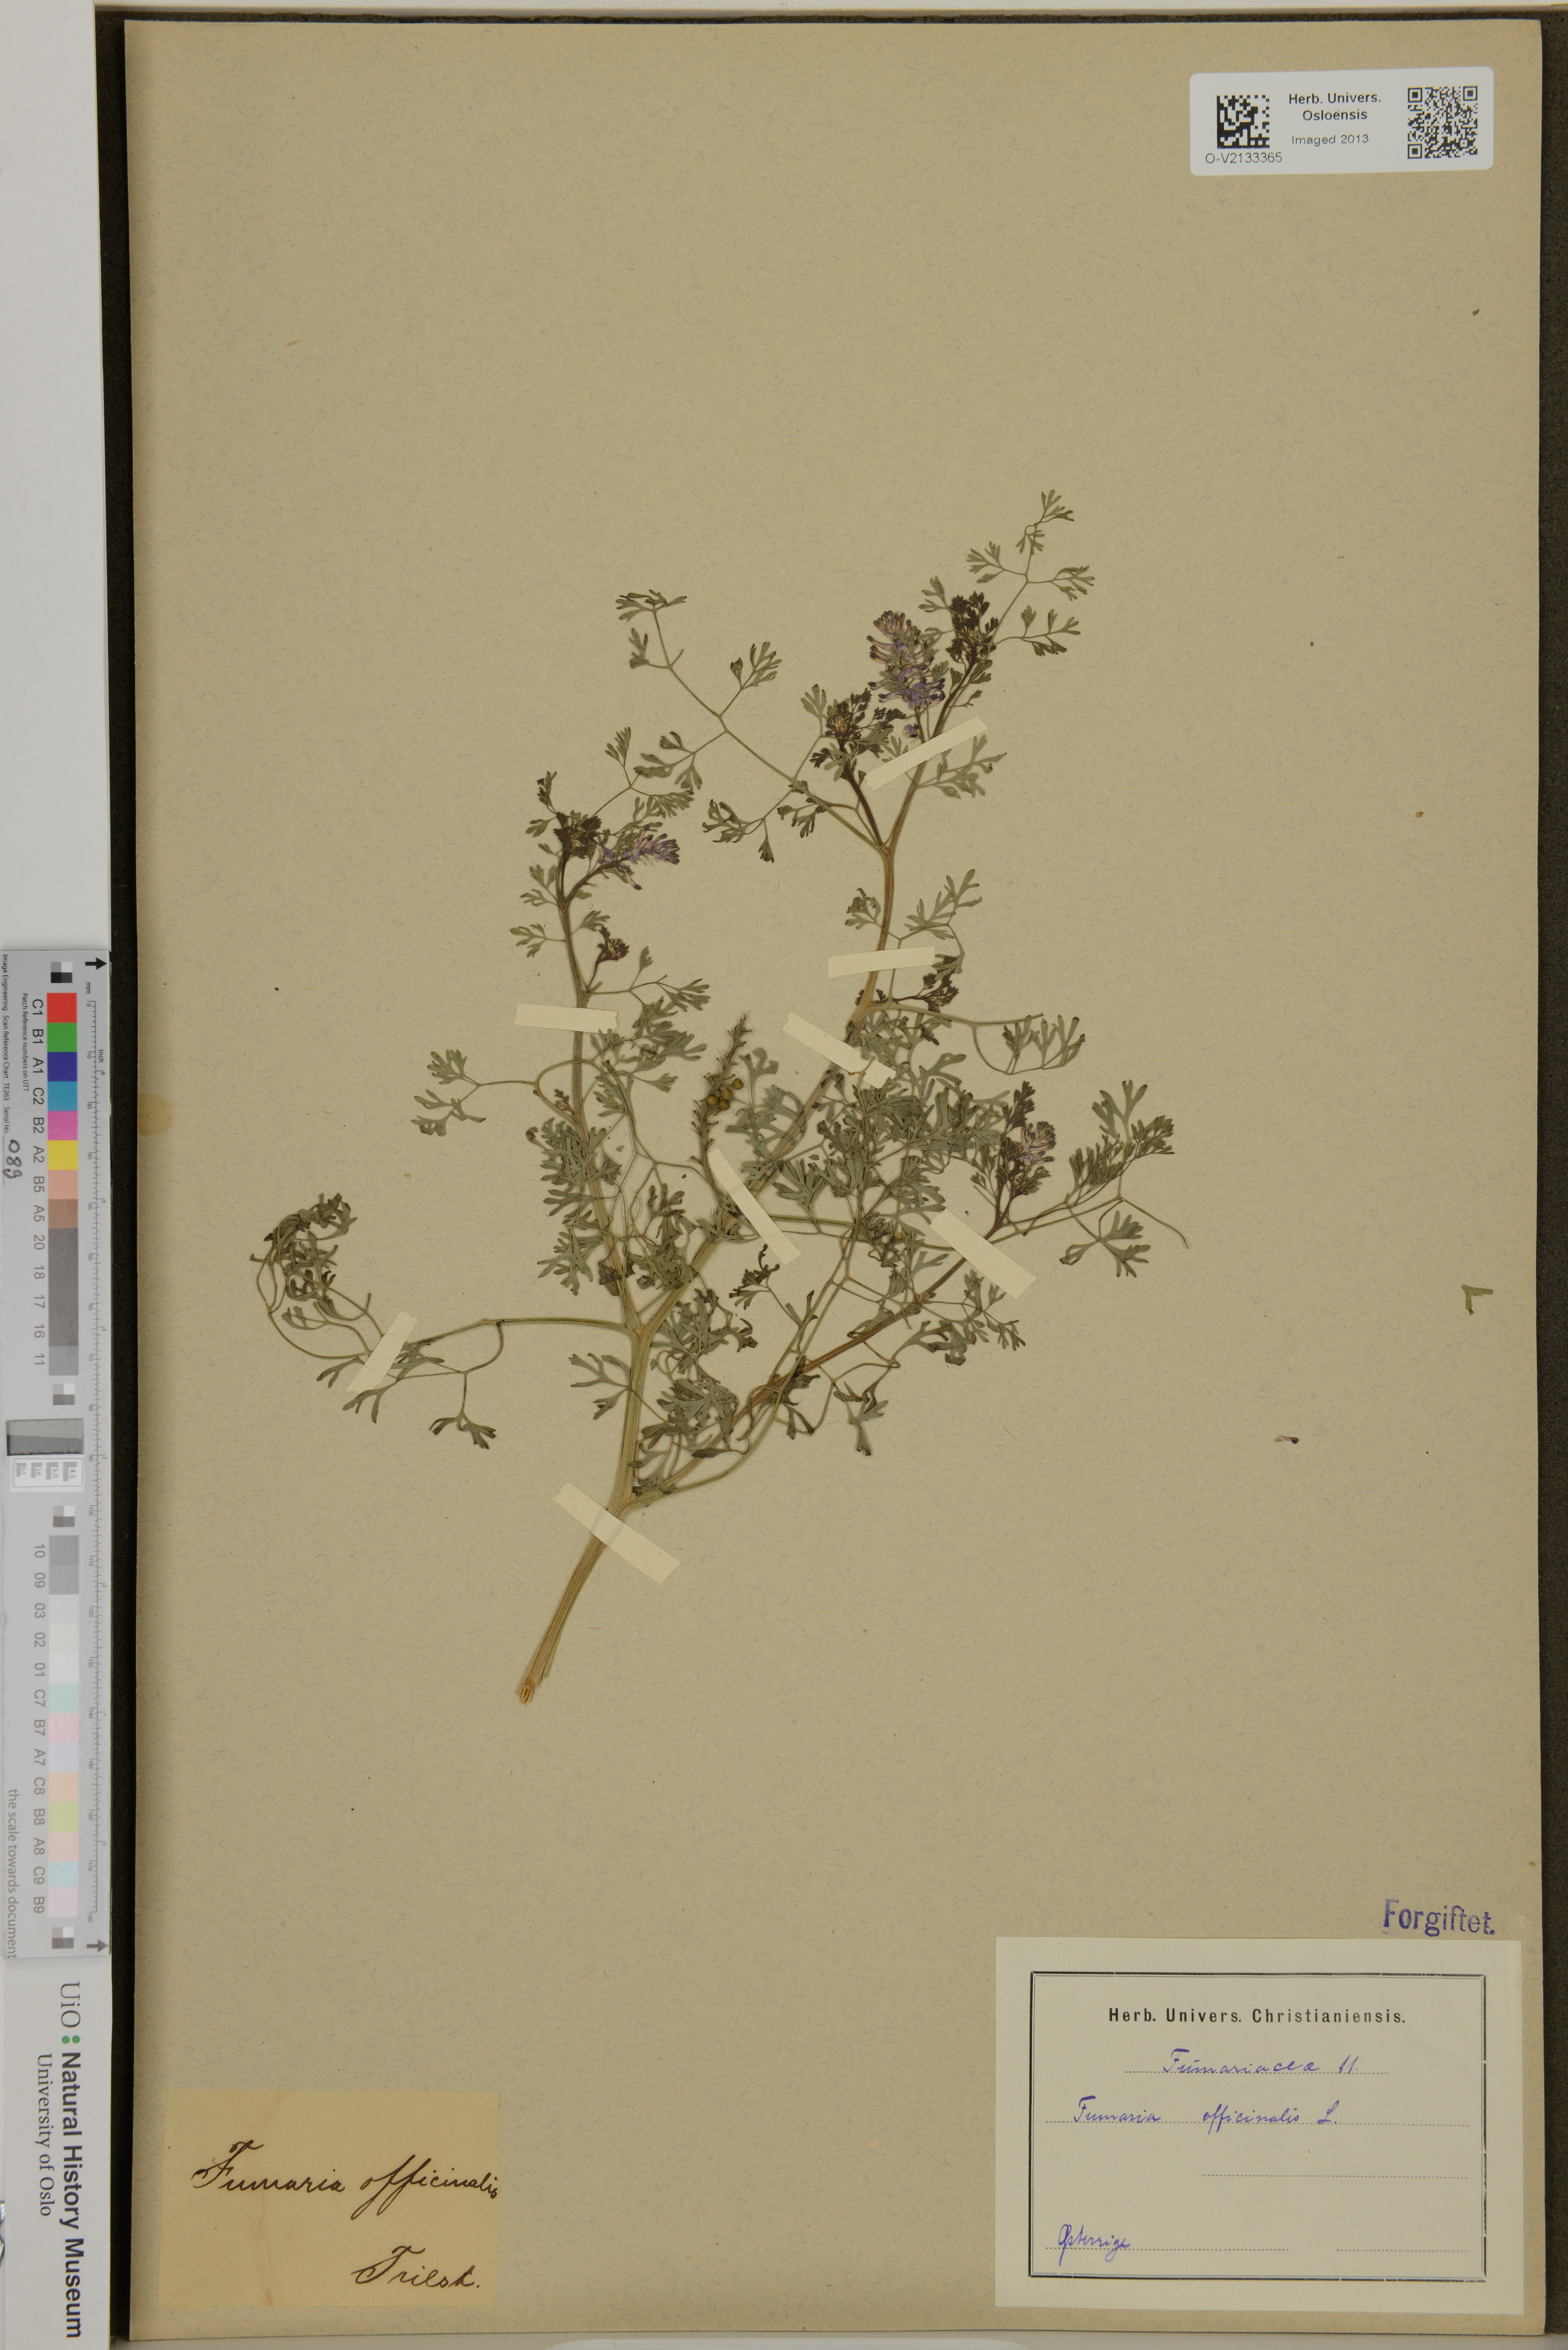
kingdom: Plantae
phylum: Tracheophyta
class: Magnoliopsida
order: Ranunculales
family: Papaveraceae
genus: Fumaria
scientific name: Fumaria officinalis
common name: Common fumitory
